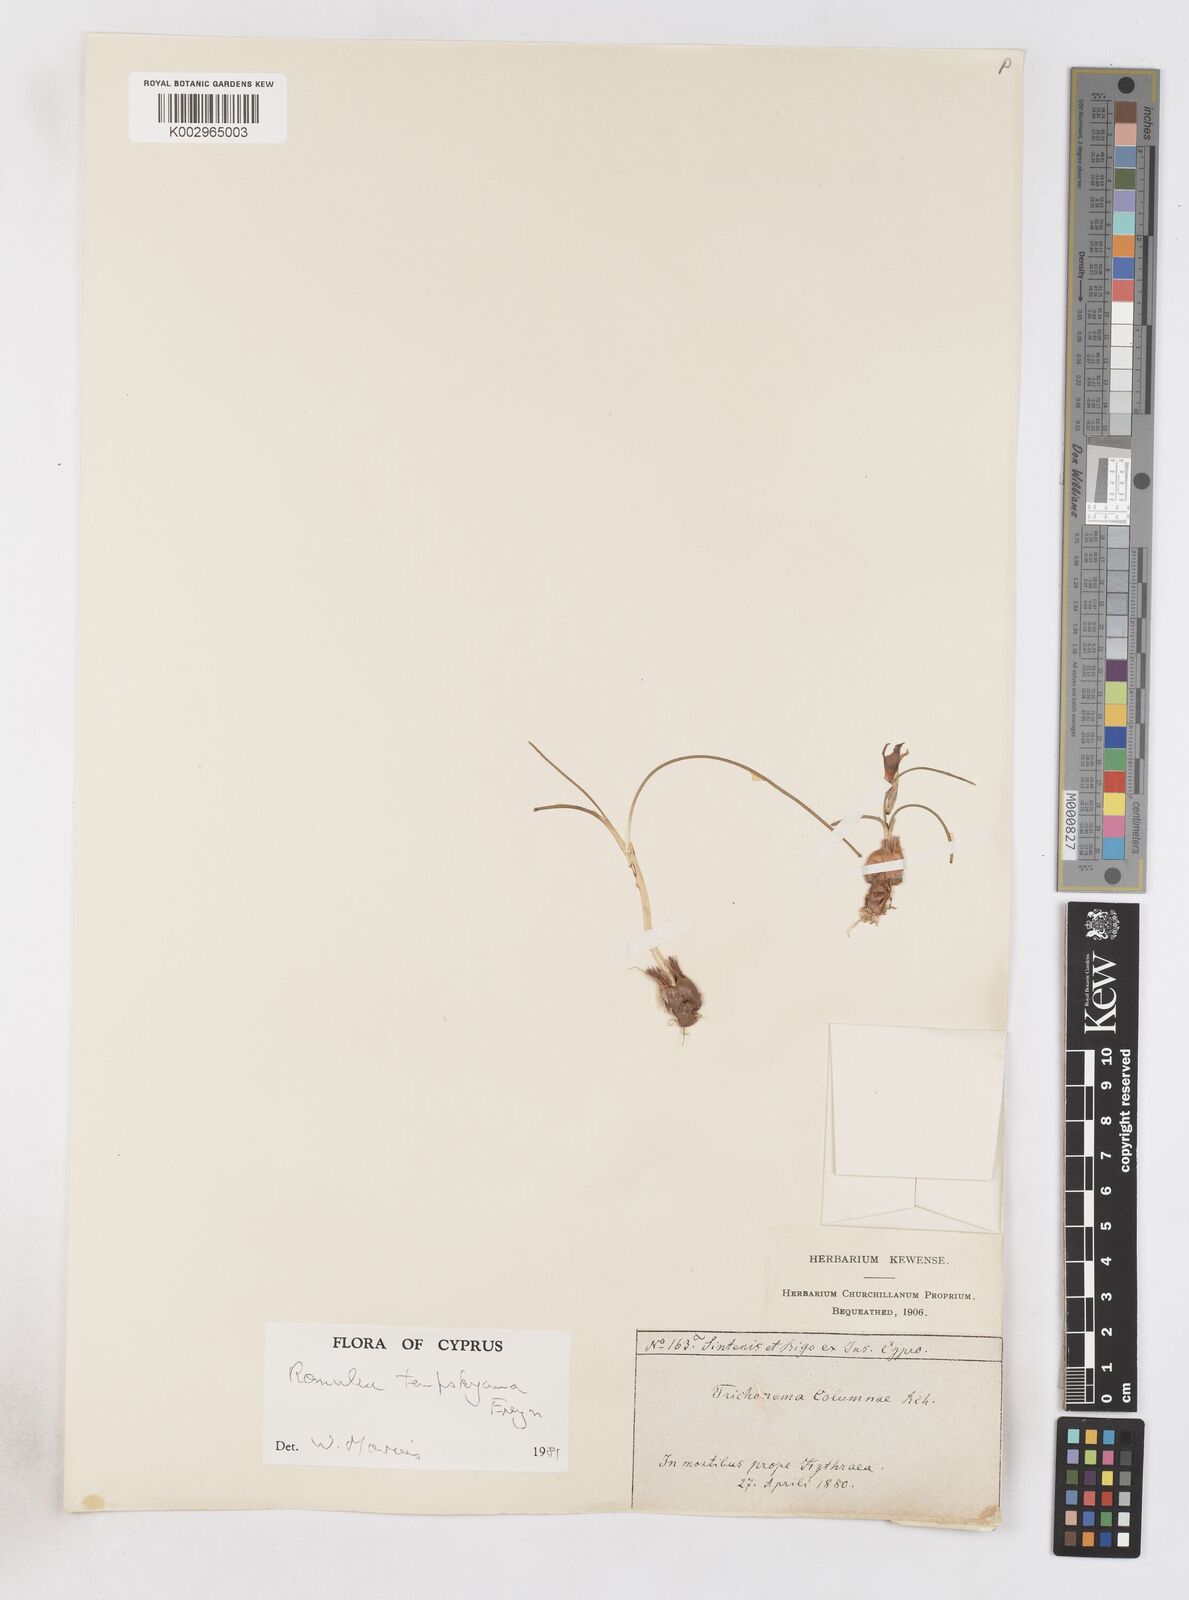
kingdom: Plantae
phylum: Tracheophyta
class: Liliopsida
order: Asparagales
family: Iridaceae
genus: Romulea
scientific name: Romulea tempskyana
